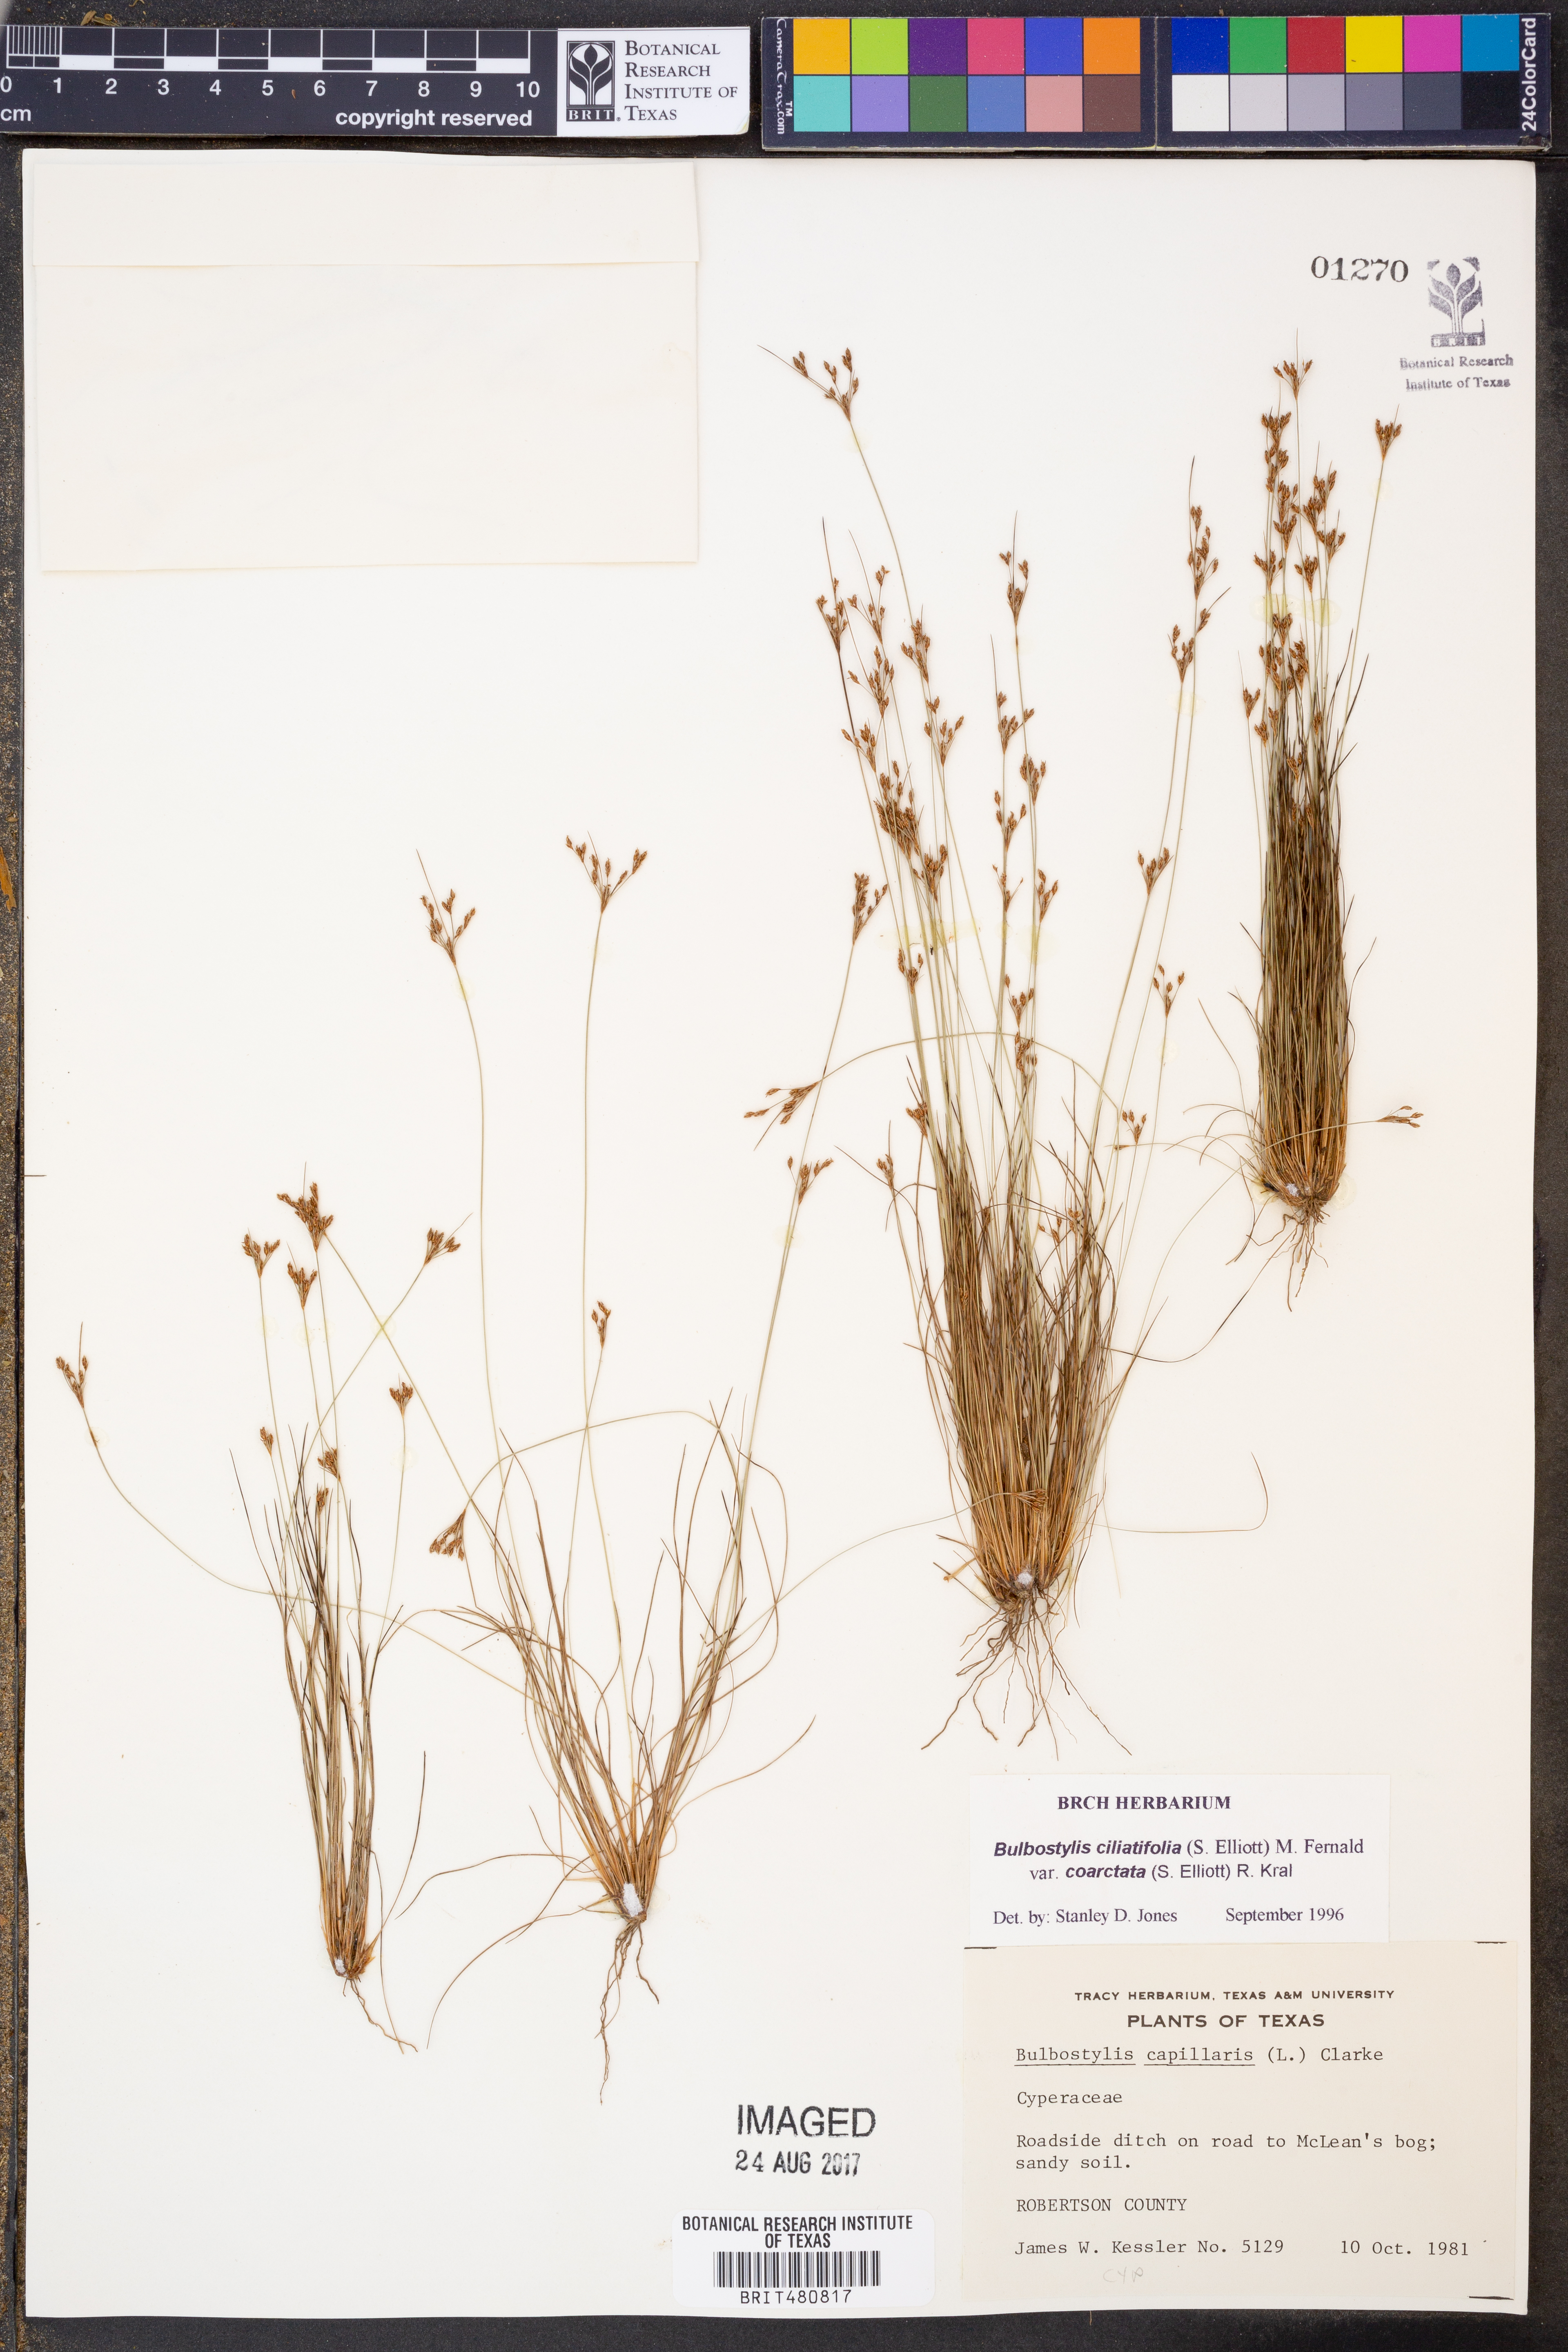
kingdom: Plantae
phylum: Tracheophyta
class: Liliopsida
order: Poales
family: Cyperaceae
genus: Bulbostylis
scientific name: Bulbostylis ciliatifolia
